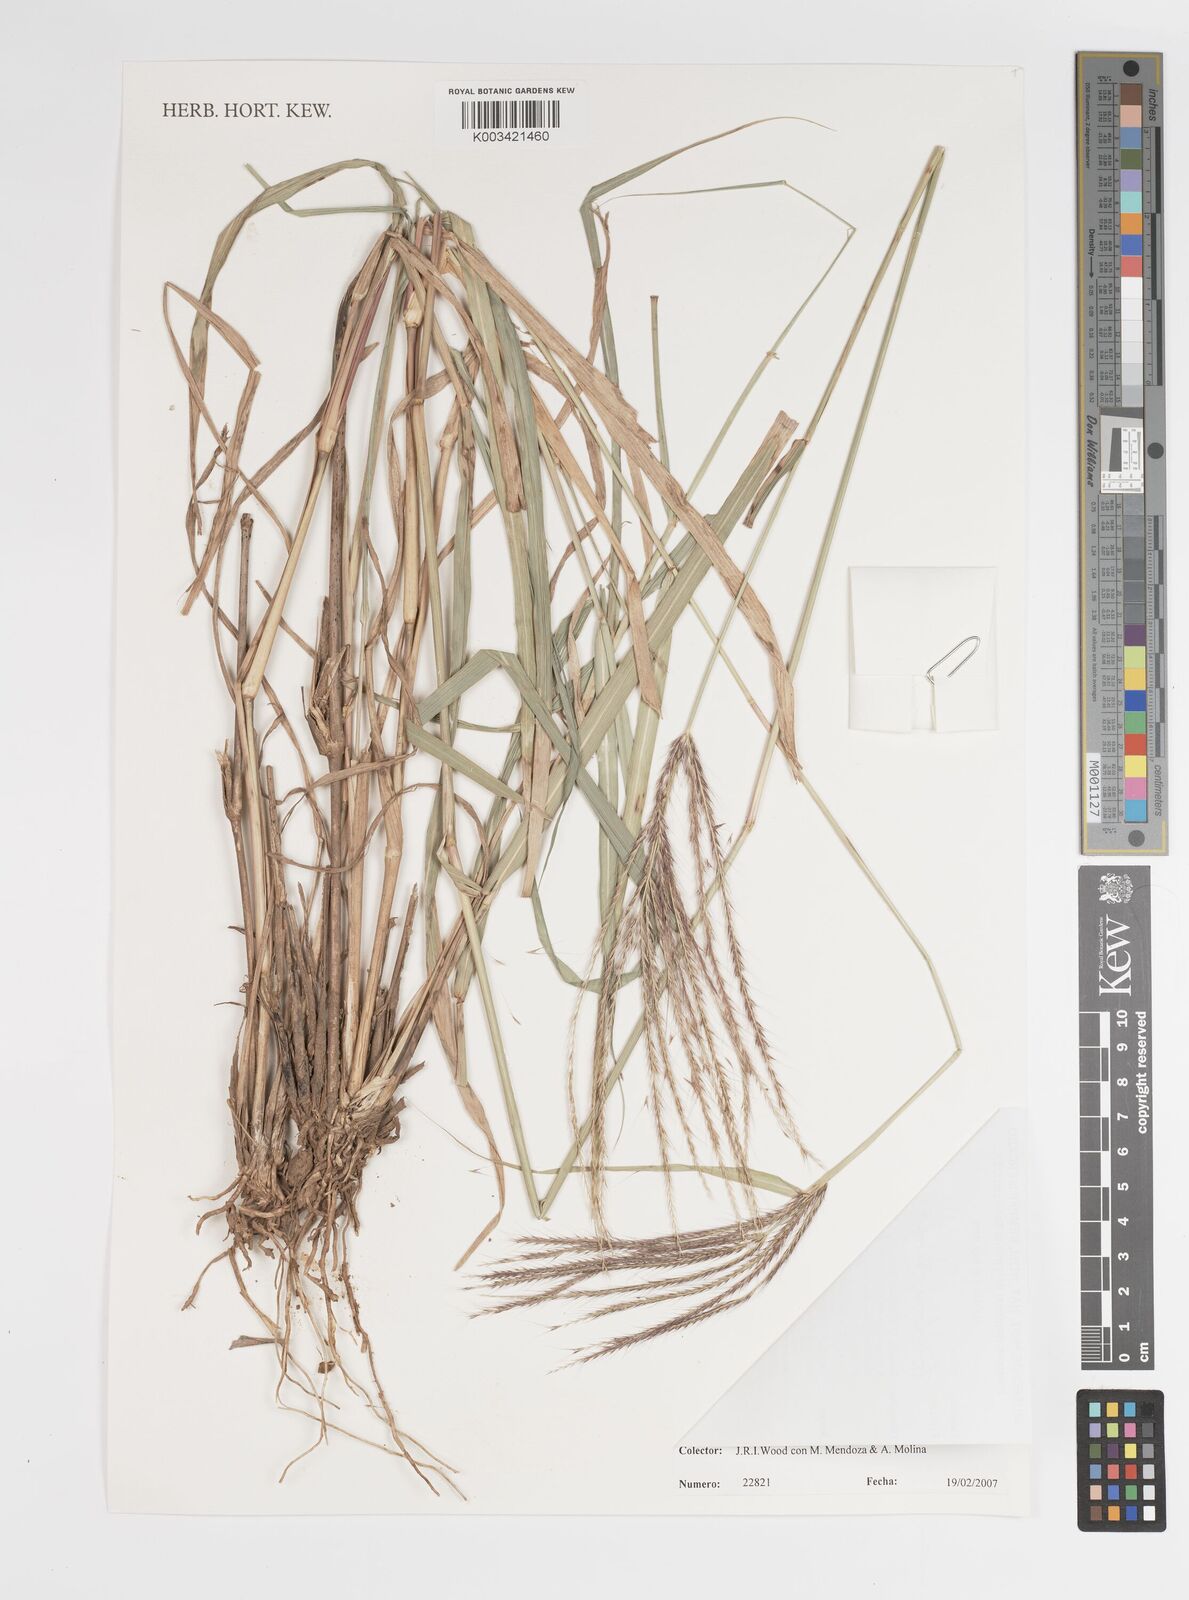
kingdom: Plantae
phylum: Tracheophyta
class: Liliopsida
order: Poales
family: Poaceae
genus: Leptochloa
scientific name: Leptochloa pluriflora
